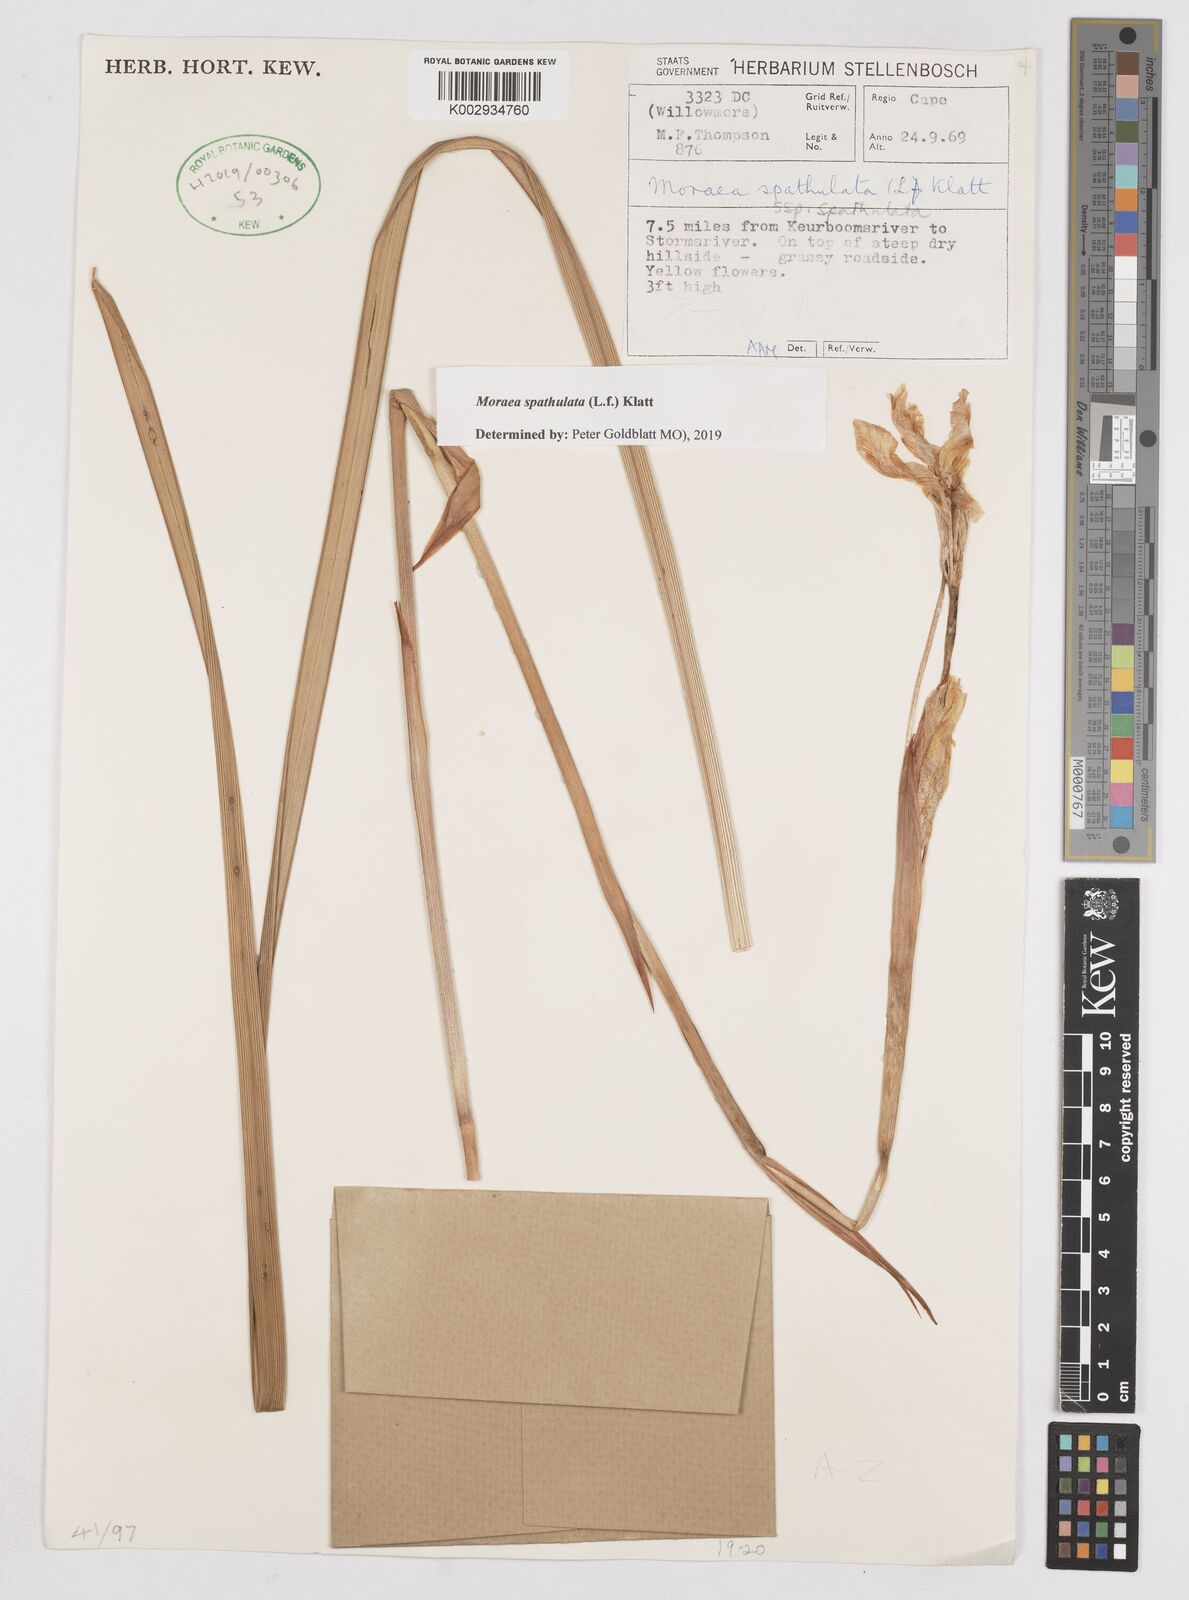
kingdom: Plantae
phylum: Tracheophyta
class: Liliopsida
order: Asparagales
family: Iridaceae
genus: Moraea
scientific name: Moraea spathulata
